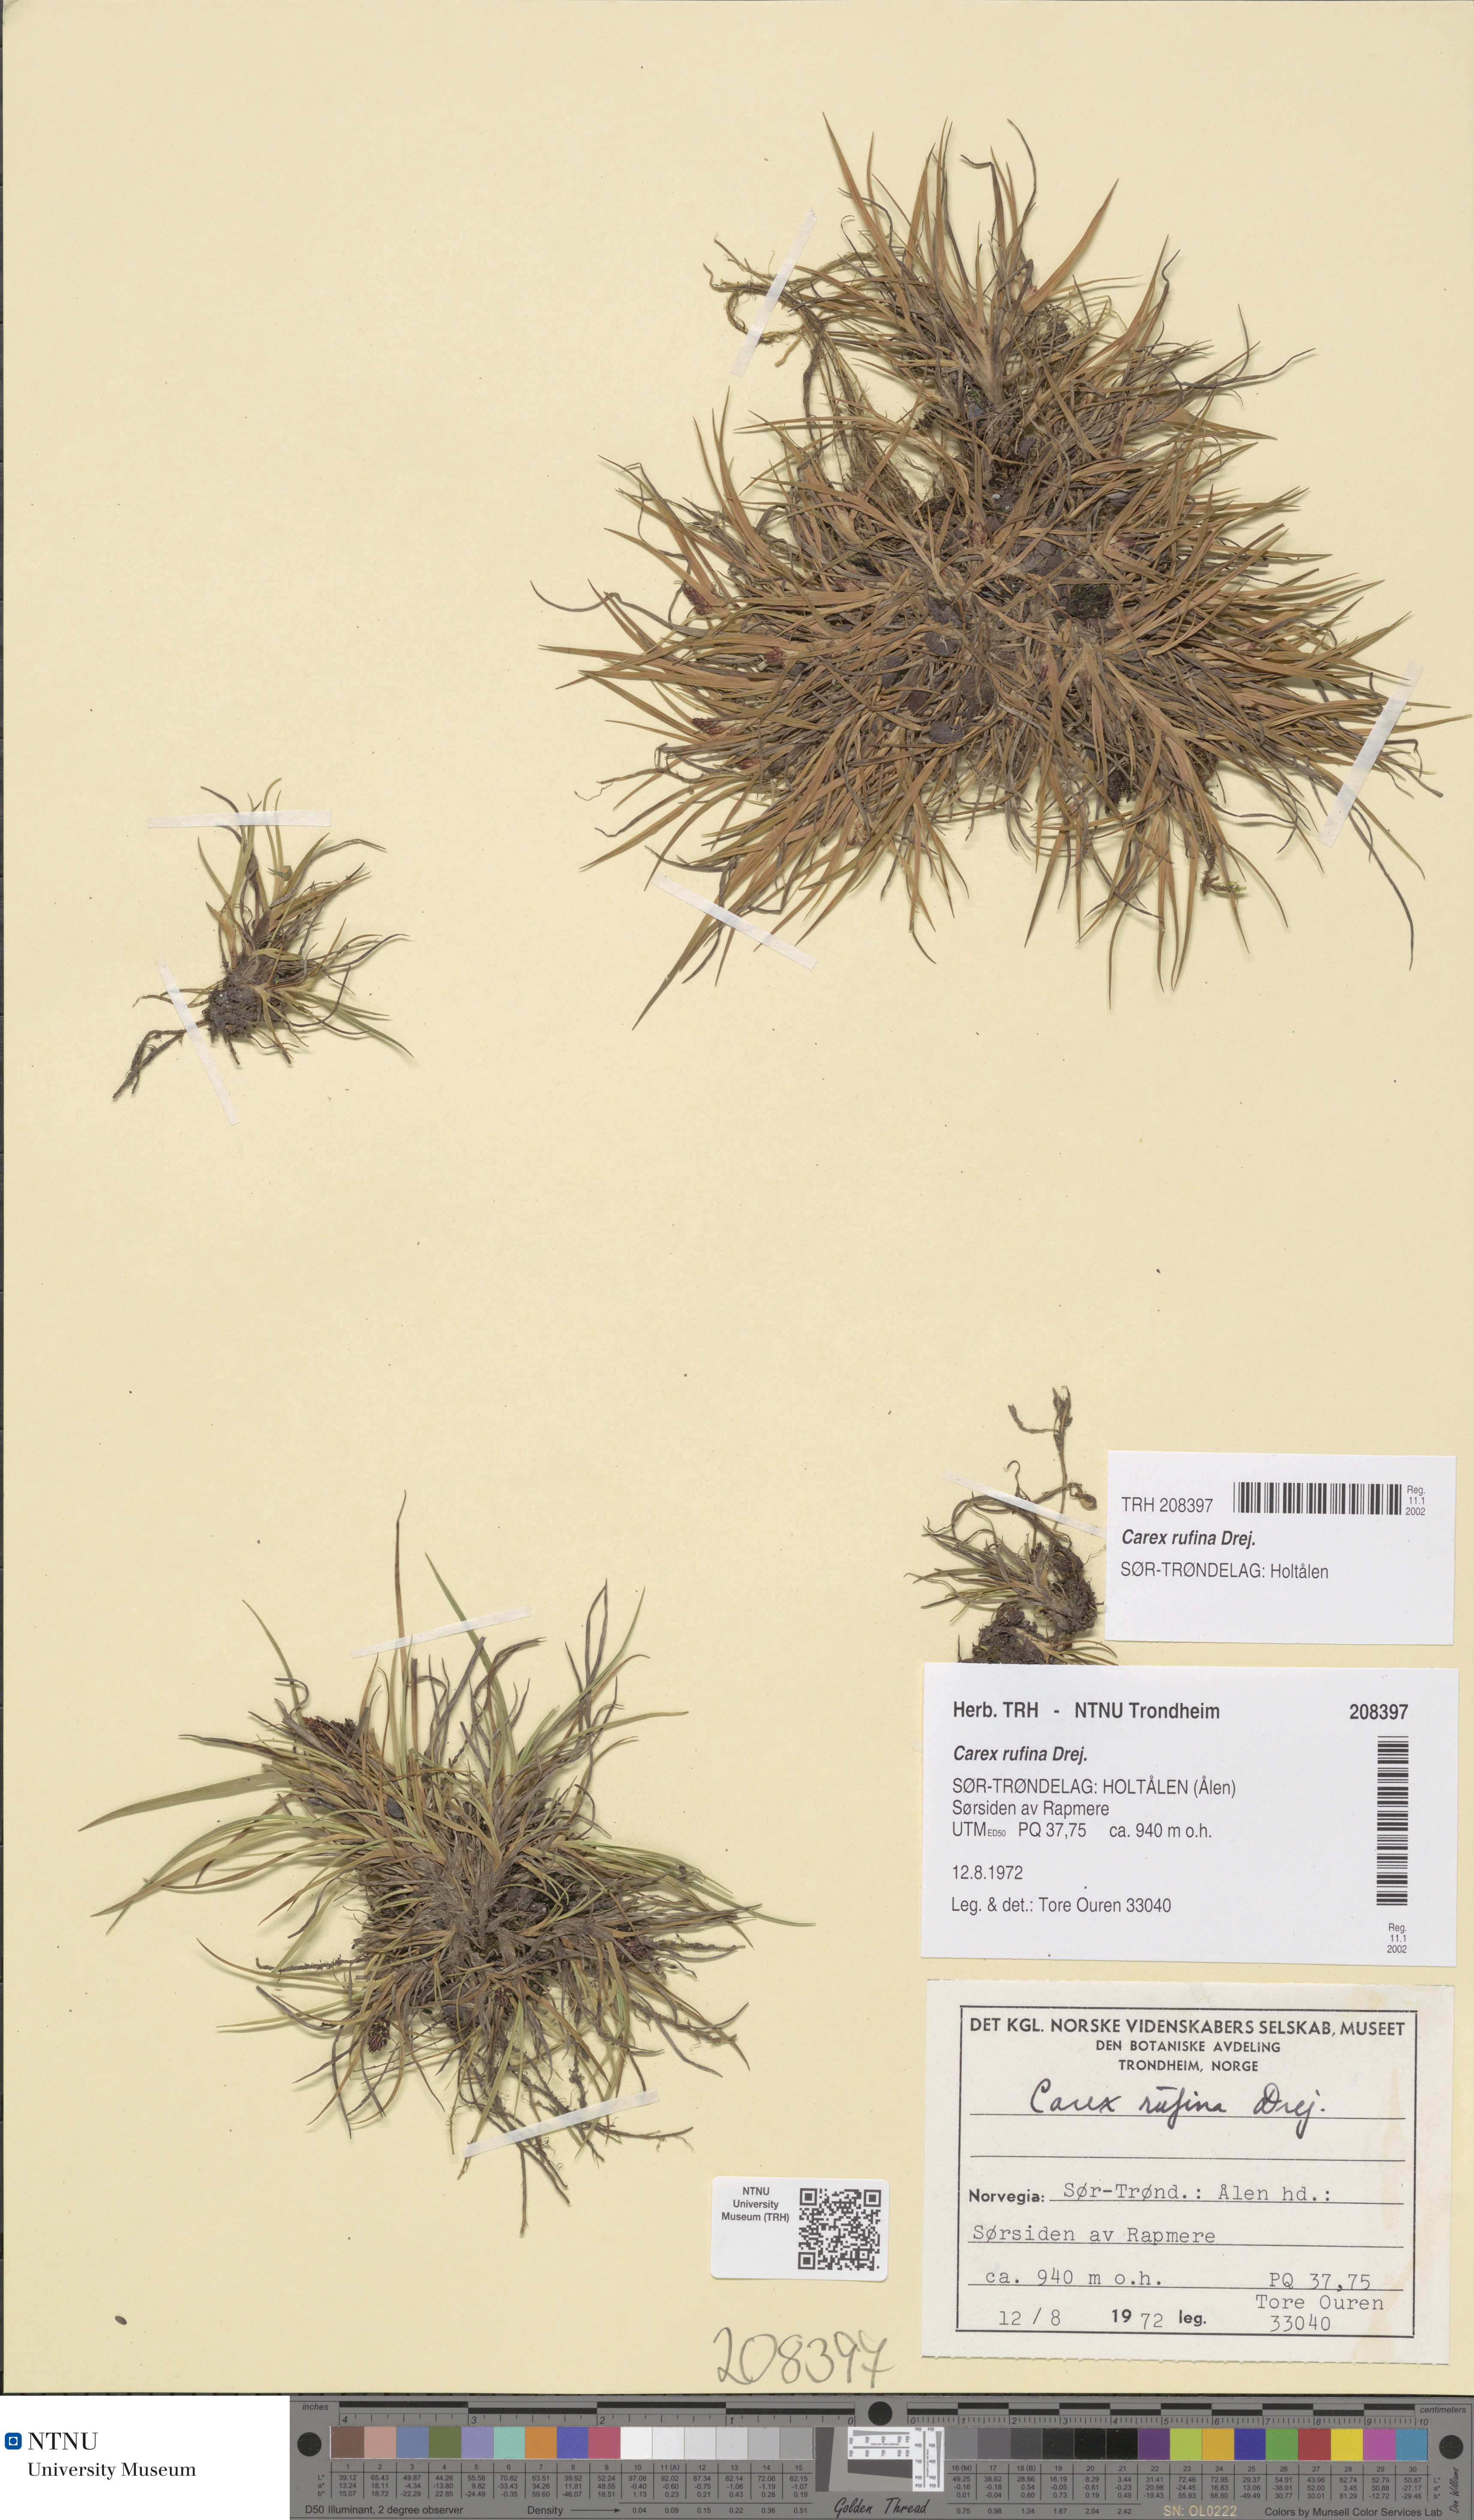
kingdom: Plantae
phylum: Tracheophyta
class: Liliopsida
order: Poales
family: Cyperaceae
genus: Carex
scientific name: Carex rufina
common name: Reddish sedge
